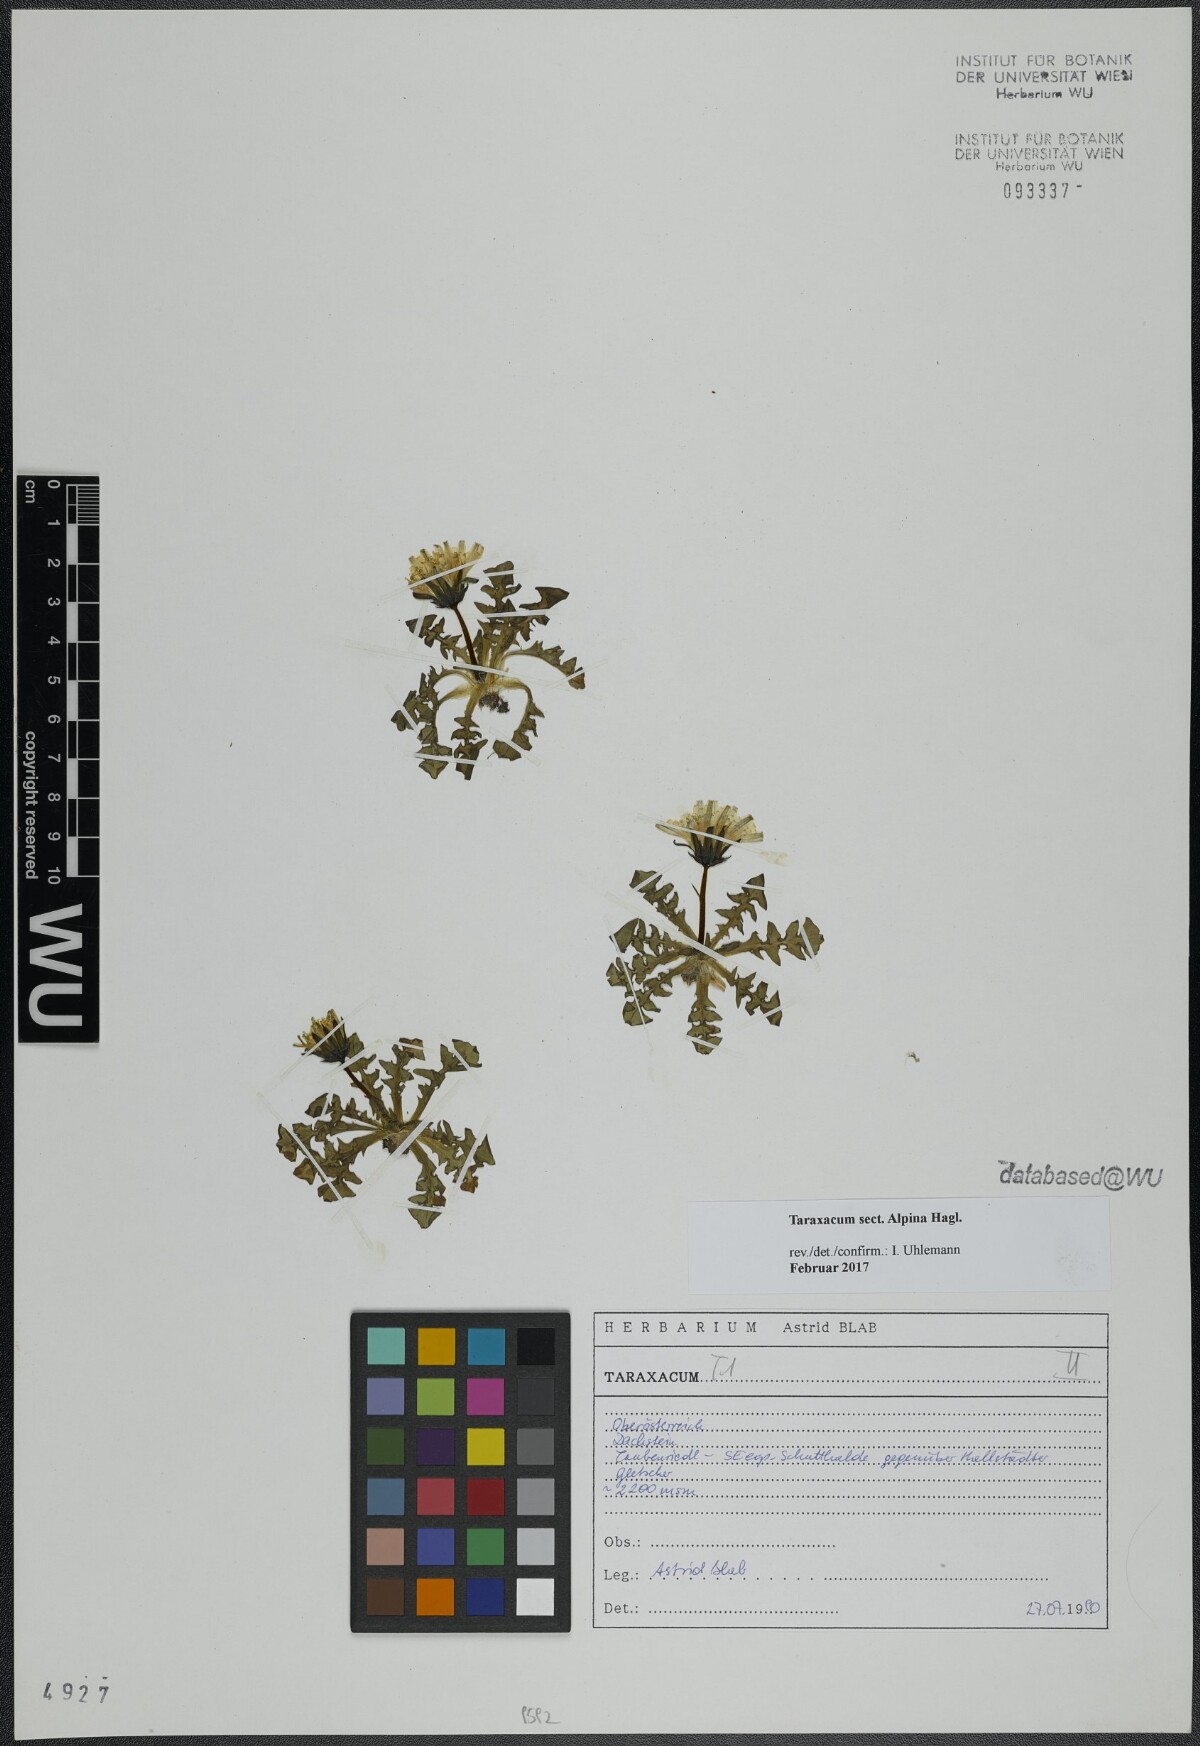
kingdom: Plantae
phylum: Tracheophyta
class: Magnoliopsida
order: Asterales
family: Asteraceae
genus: Taraxacum
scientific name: Taraxacum
